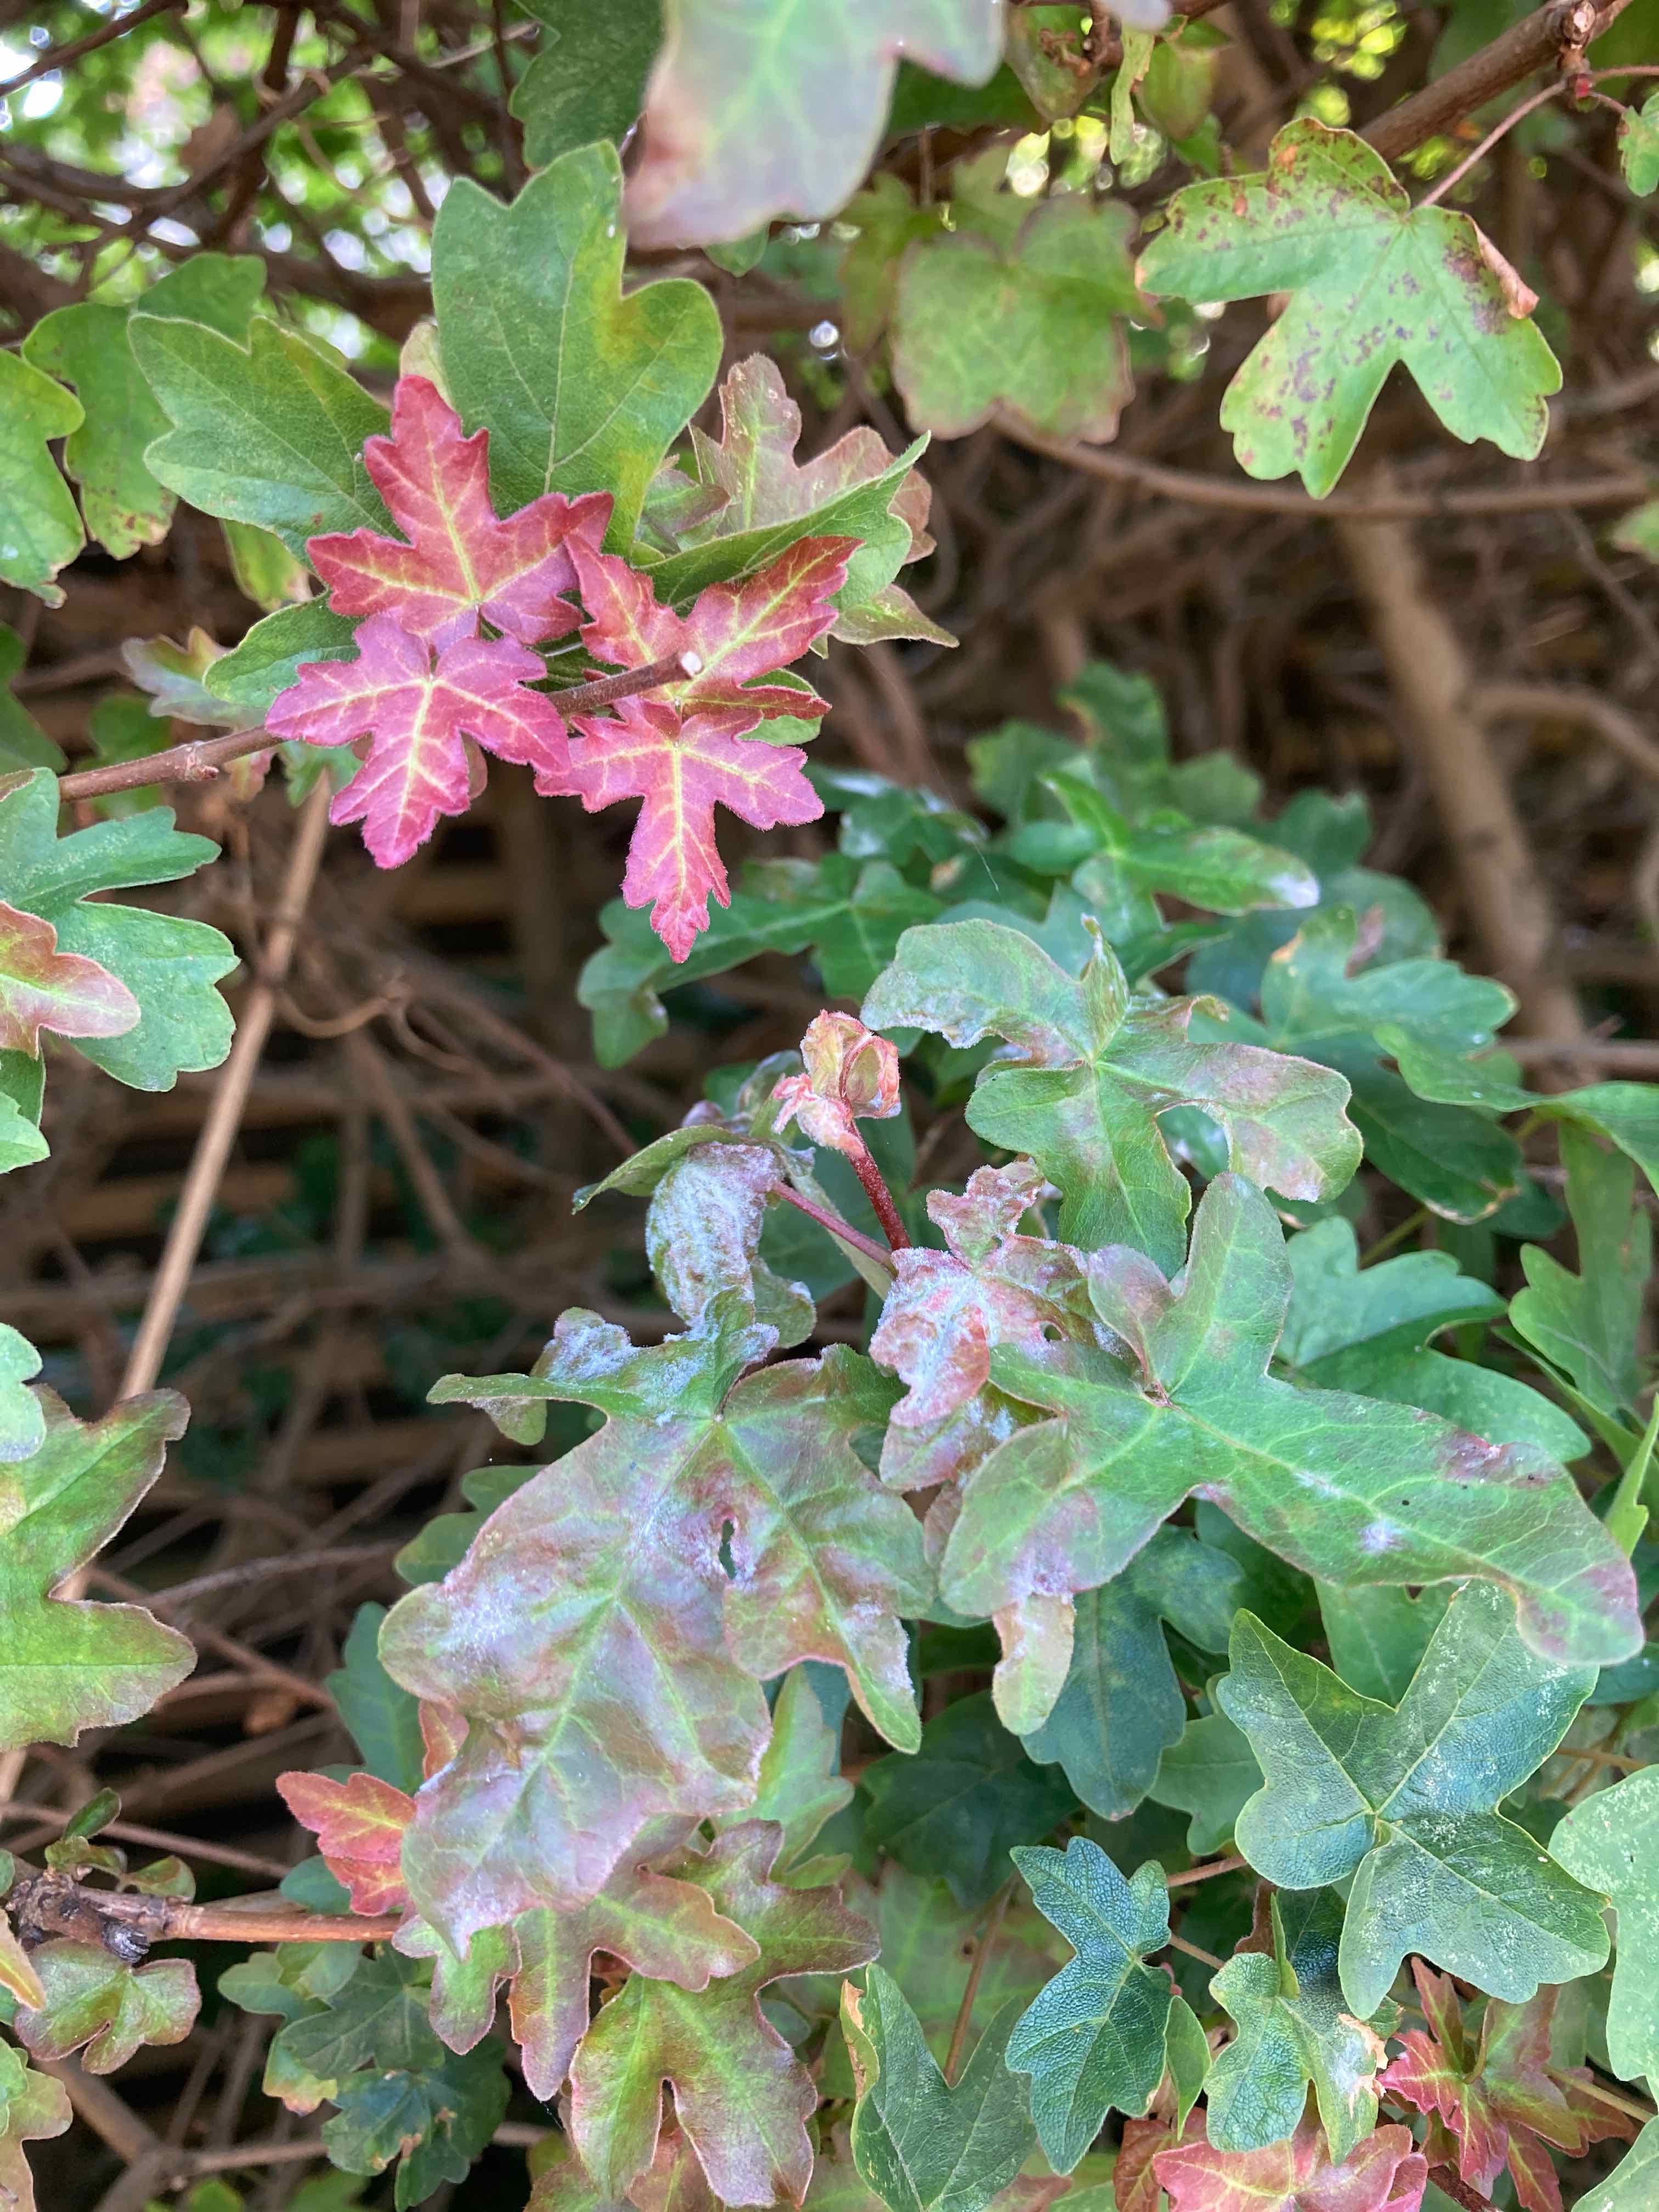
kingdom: Fungi
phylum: Ascomycota
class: Leotiomycetes
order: Helotiales
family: Erysiphaceae
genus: Sawadaea
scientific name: Sawadaea bicornis
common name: Maple mildew
